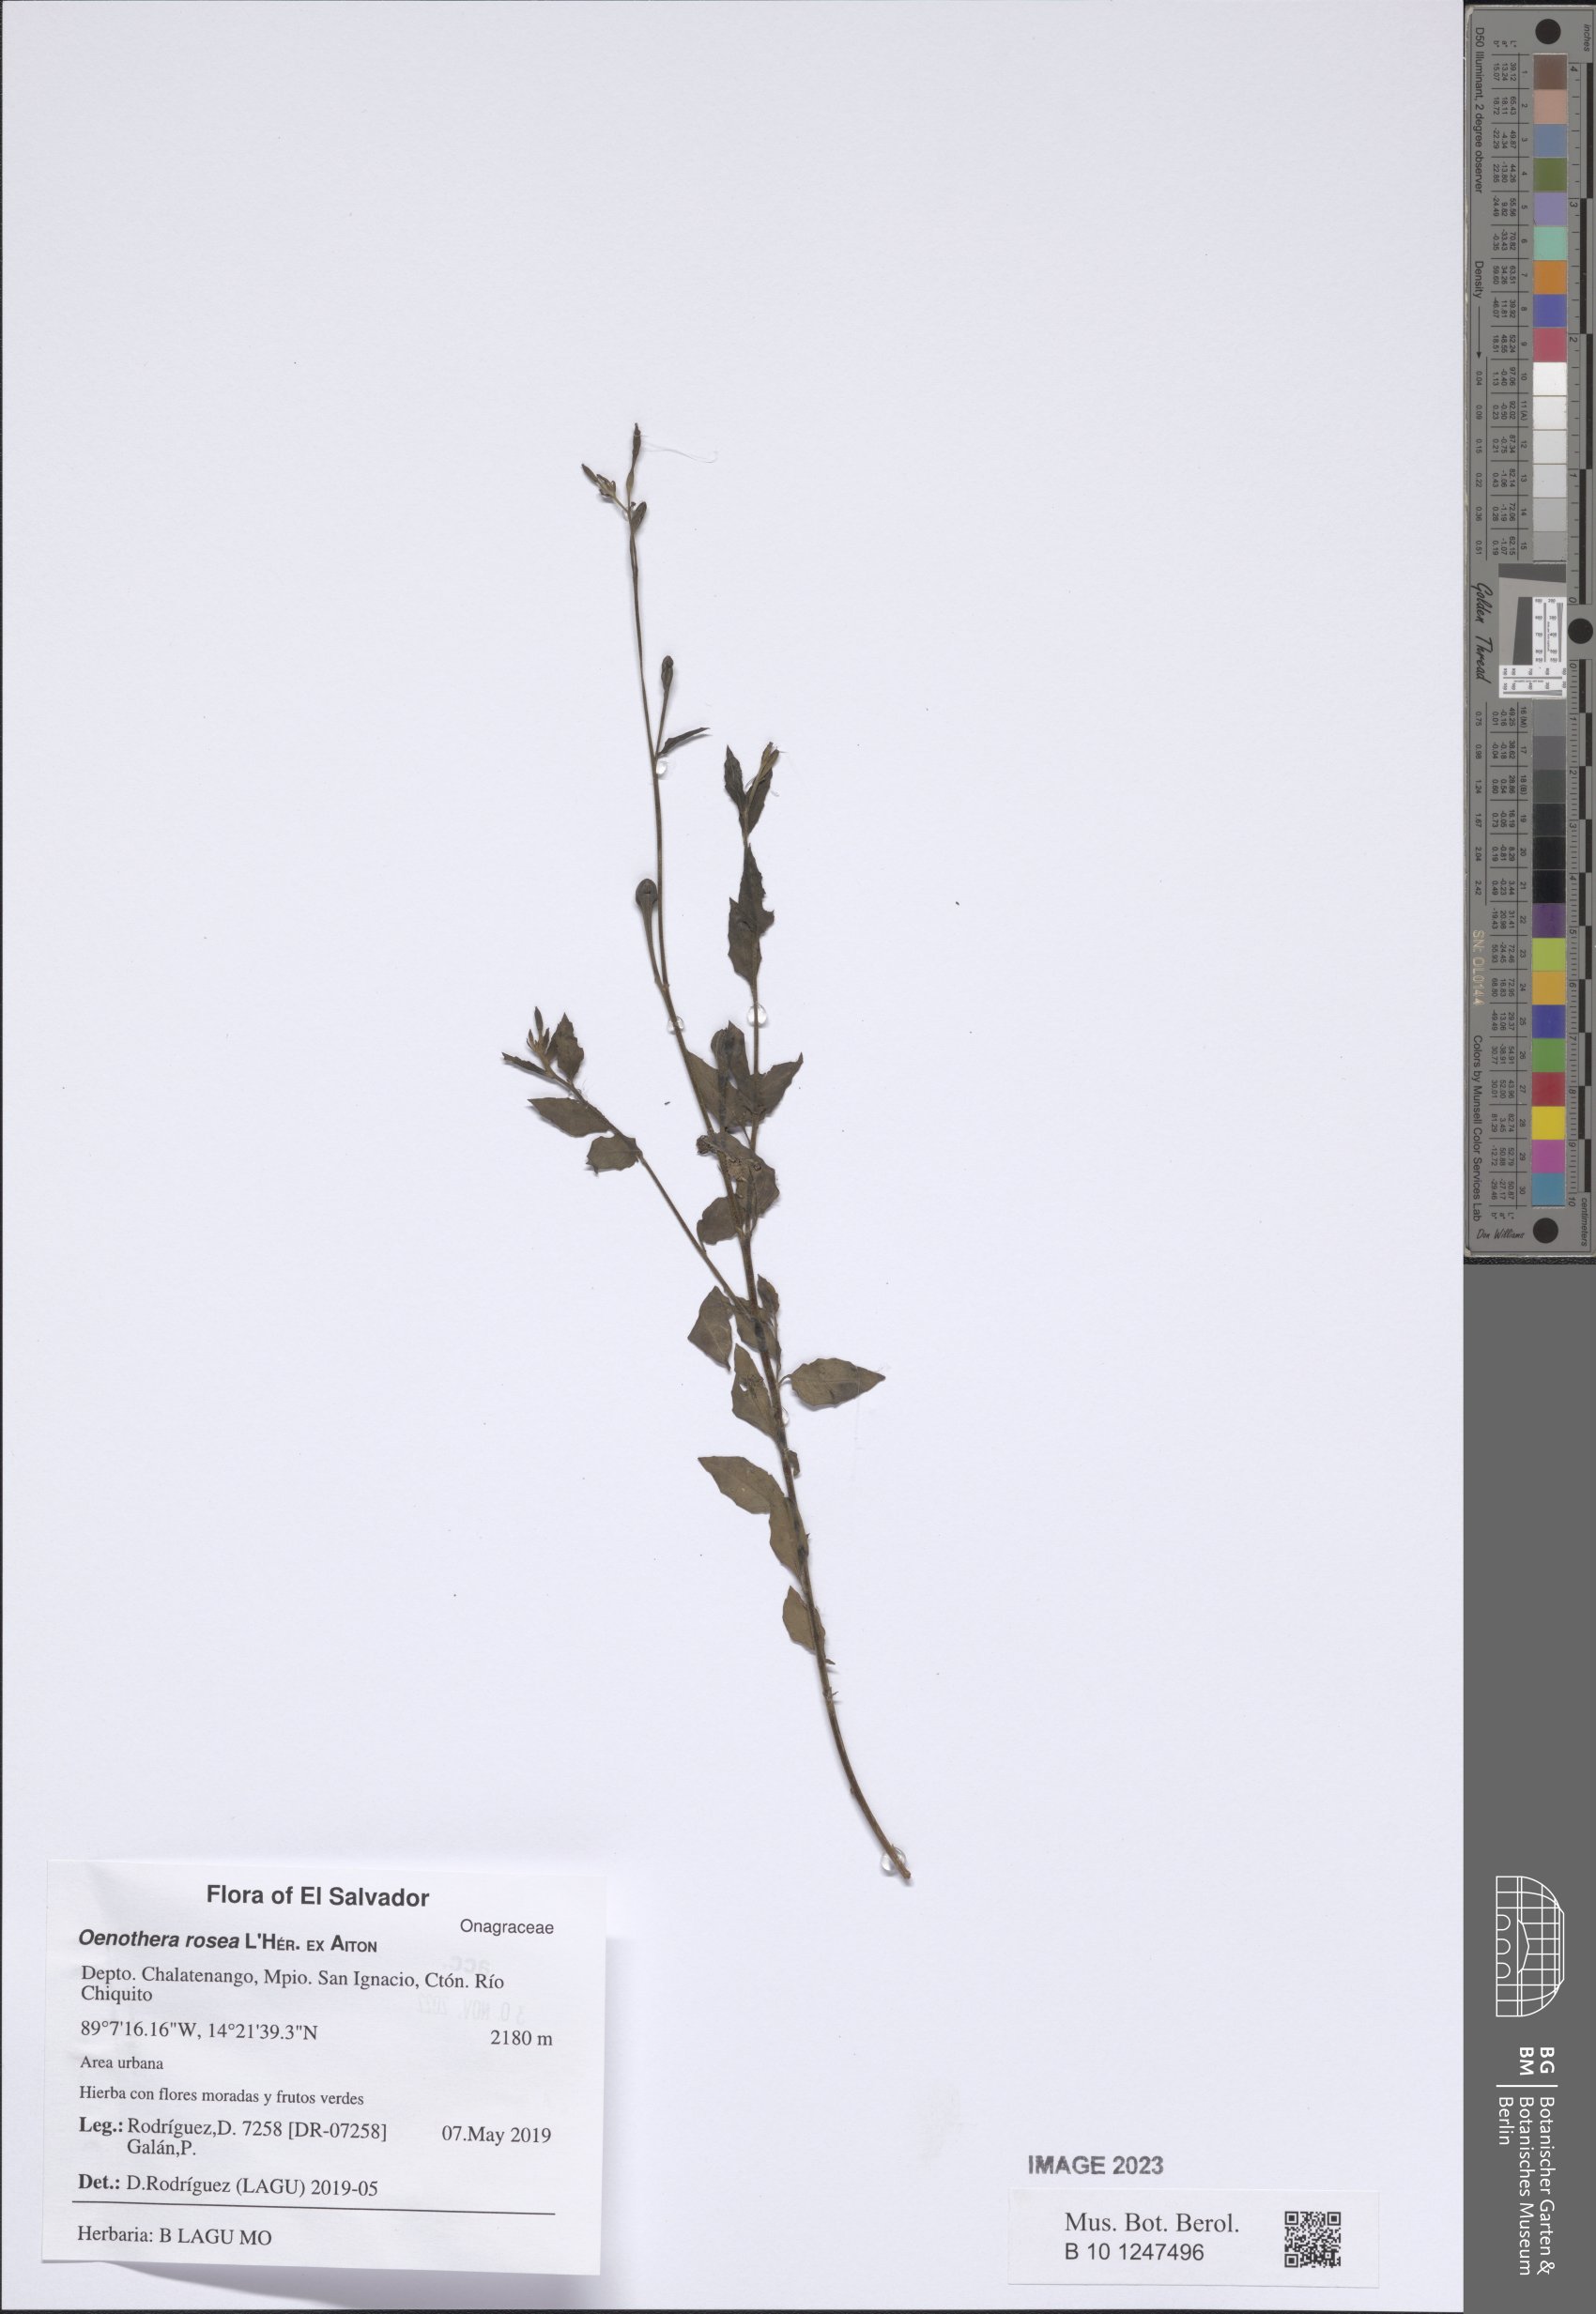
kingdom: Plantae
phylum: Tracheophyta
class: Magnoliopsida
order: Myrtales
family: Onagraceae
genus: Oenothera
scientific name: Oenothera rosea
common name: Rosy evening-primrose
